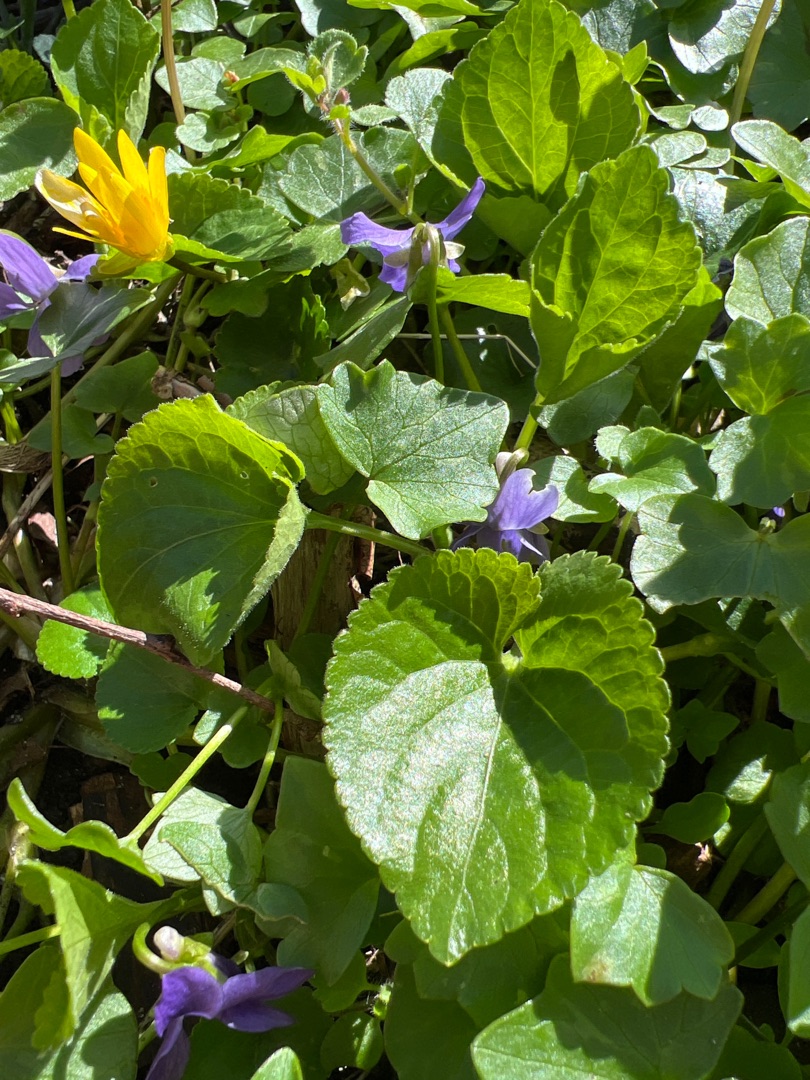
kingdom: Plantae
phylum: Tracheophyta
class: Magnoliopsida
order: Malpighiales
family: Violaceae
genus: Viola
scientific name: Viola odorata
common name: Marts-viol
